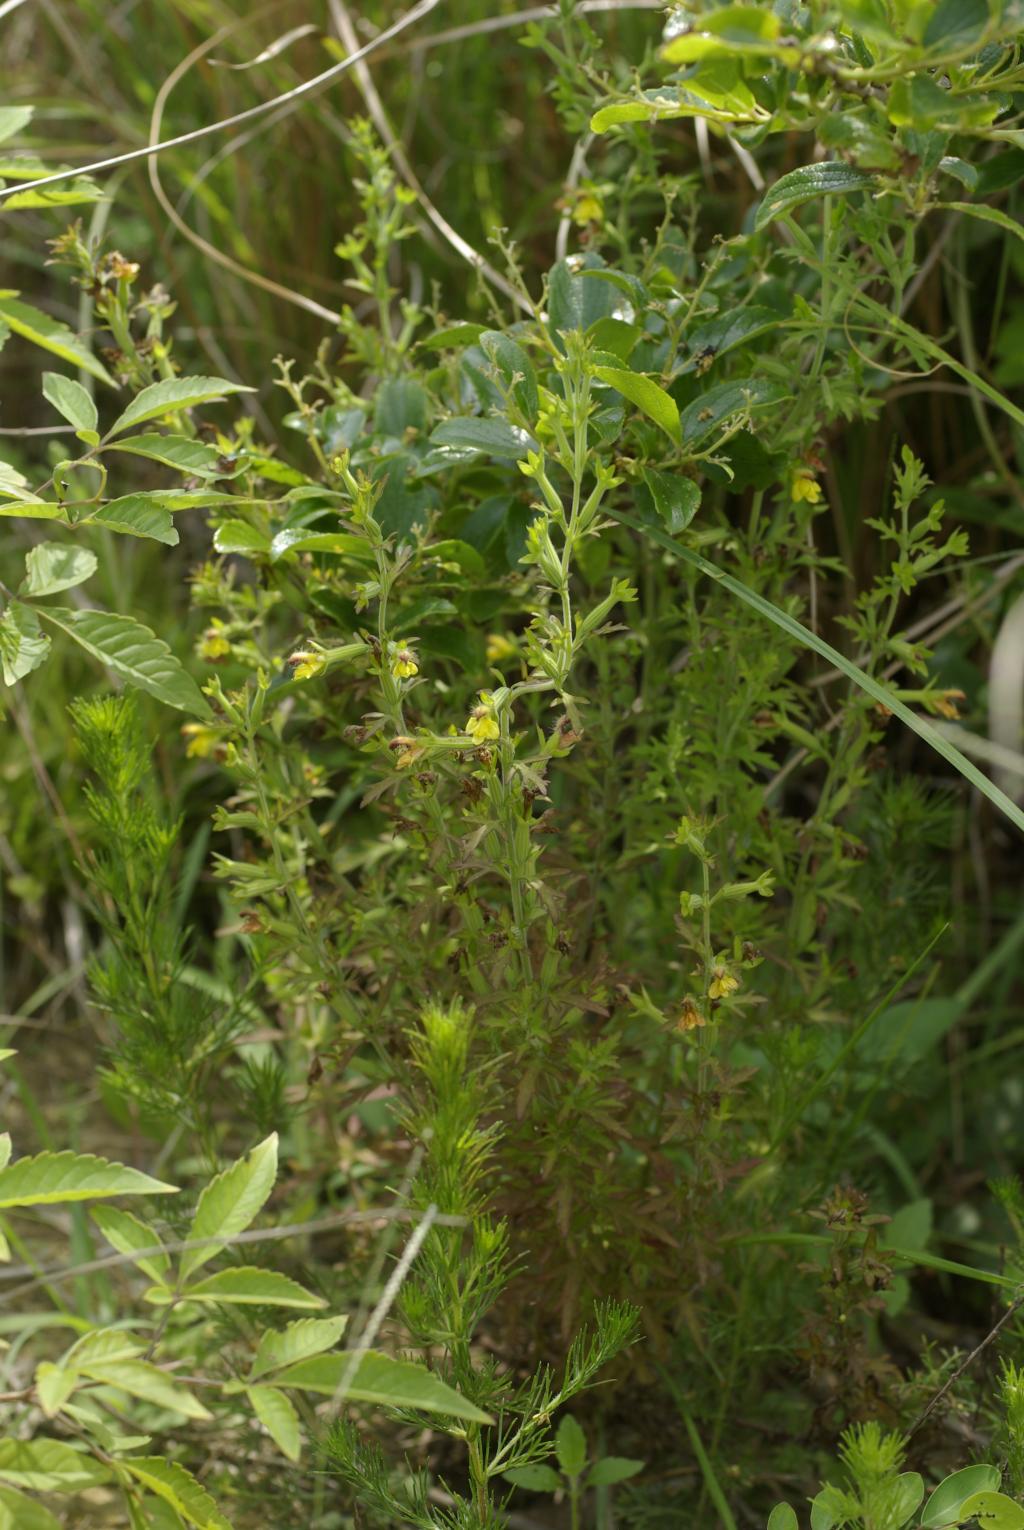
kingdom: Plantae
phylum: Tracheophyta
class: Magnoliopsida
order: Lamiales
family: Orobanchaceae
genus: Siphonostegia
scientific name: Siphonostegia chinensis
